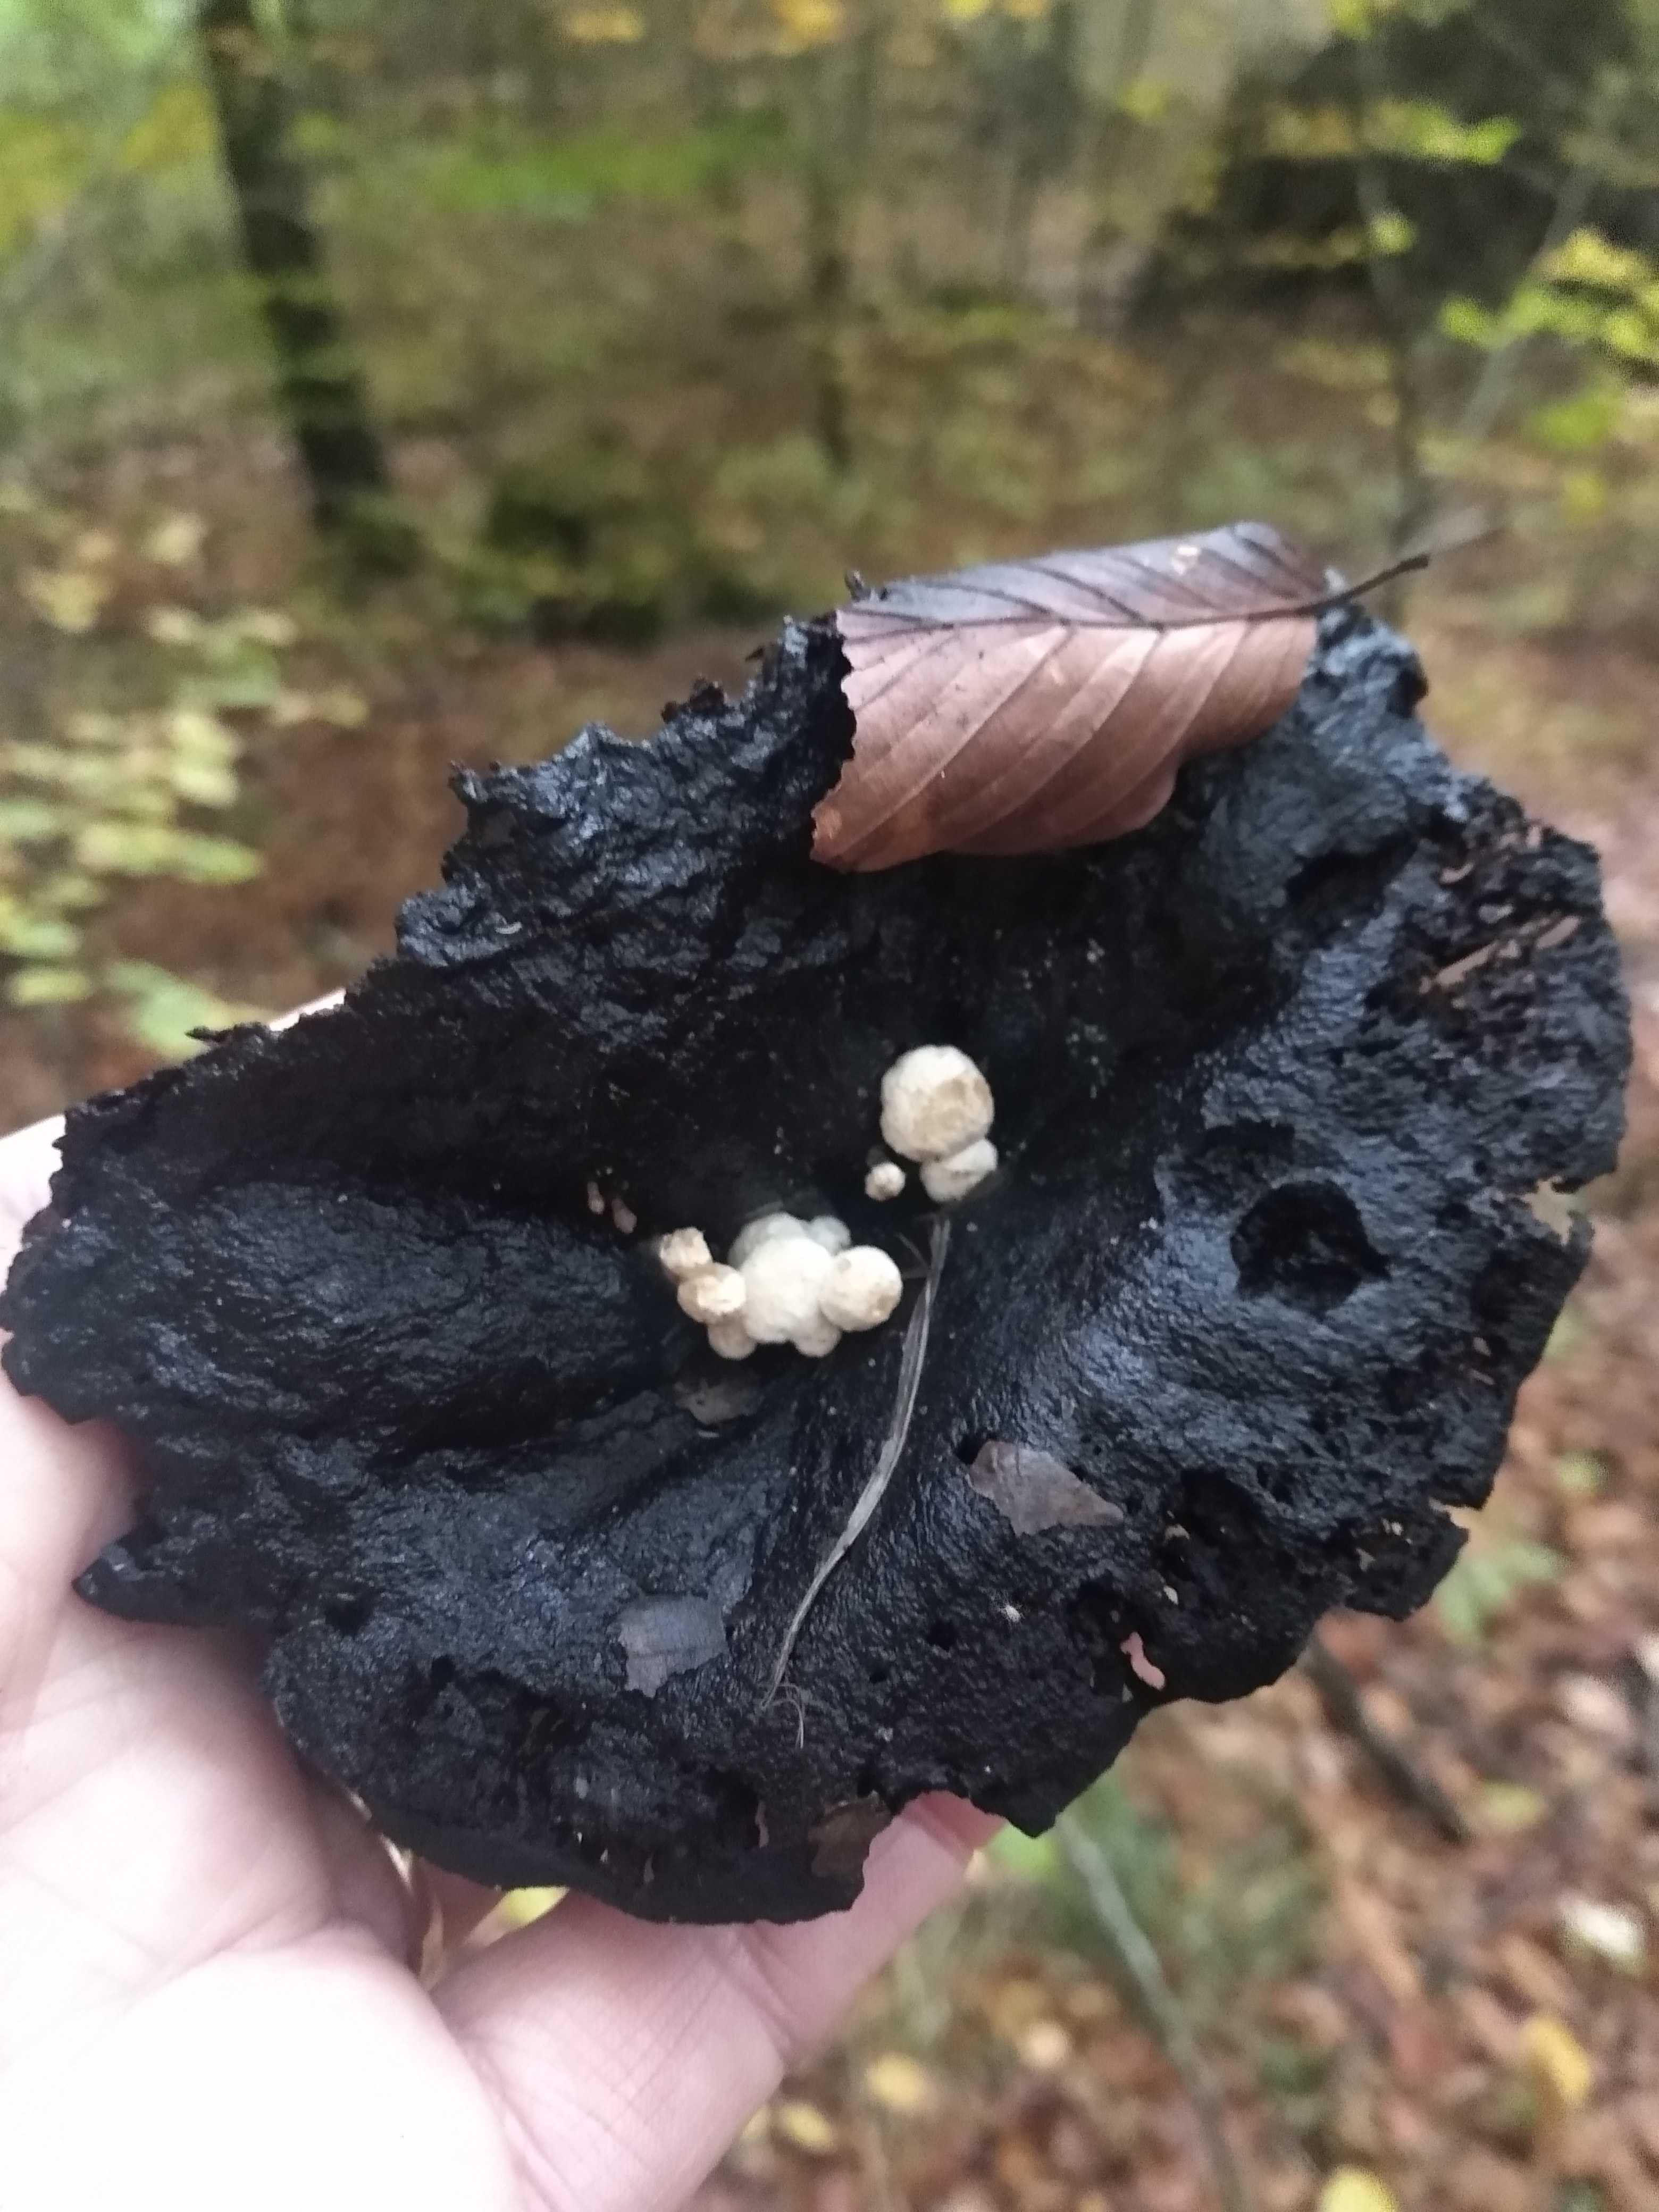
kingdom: Fungi
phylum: Basidiomycota
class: Agaricomycetes
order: Agaricales
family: Lyophyllaceae
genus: Asterophora
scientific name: Asterophora lycoperdoides
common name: brunpudret snyltehat
